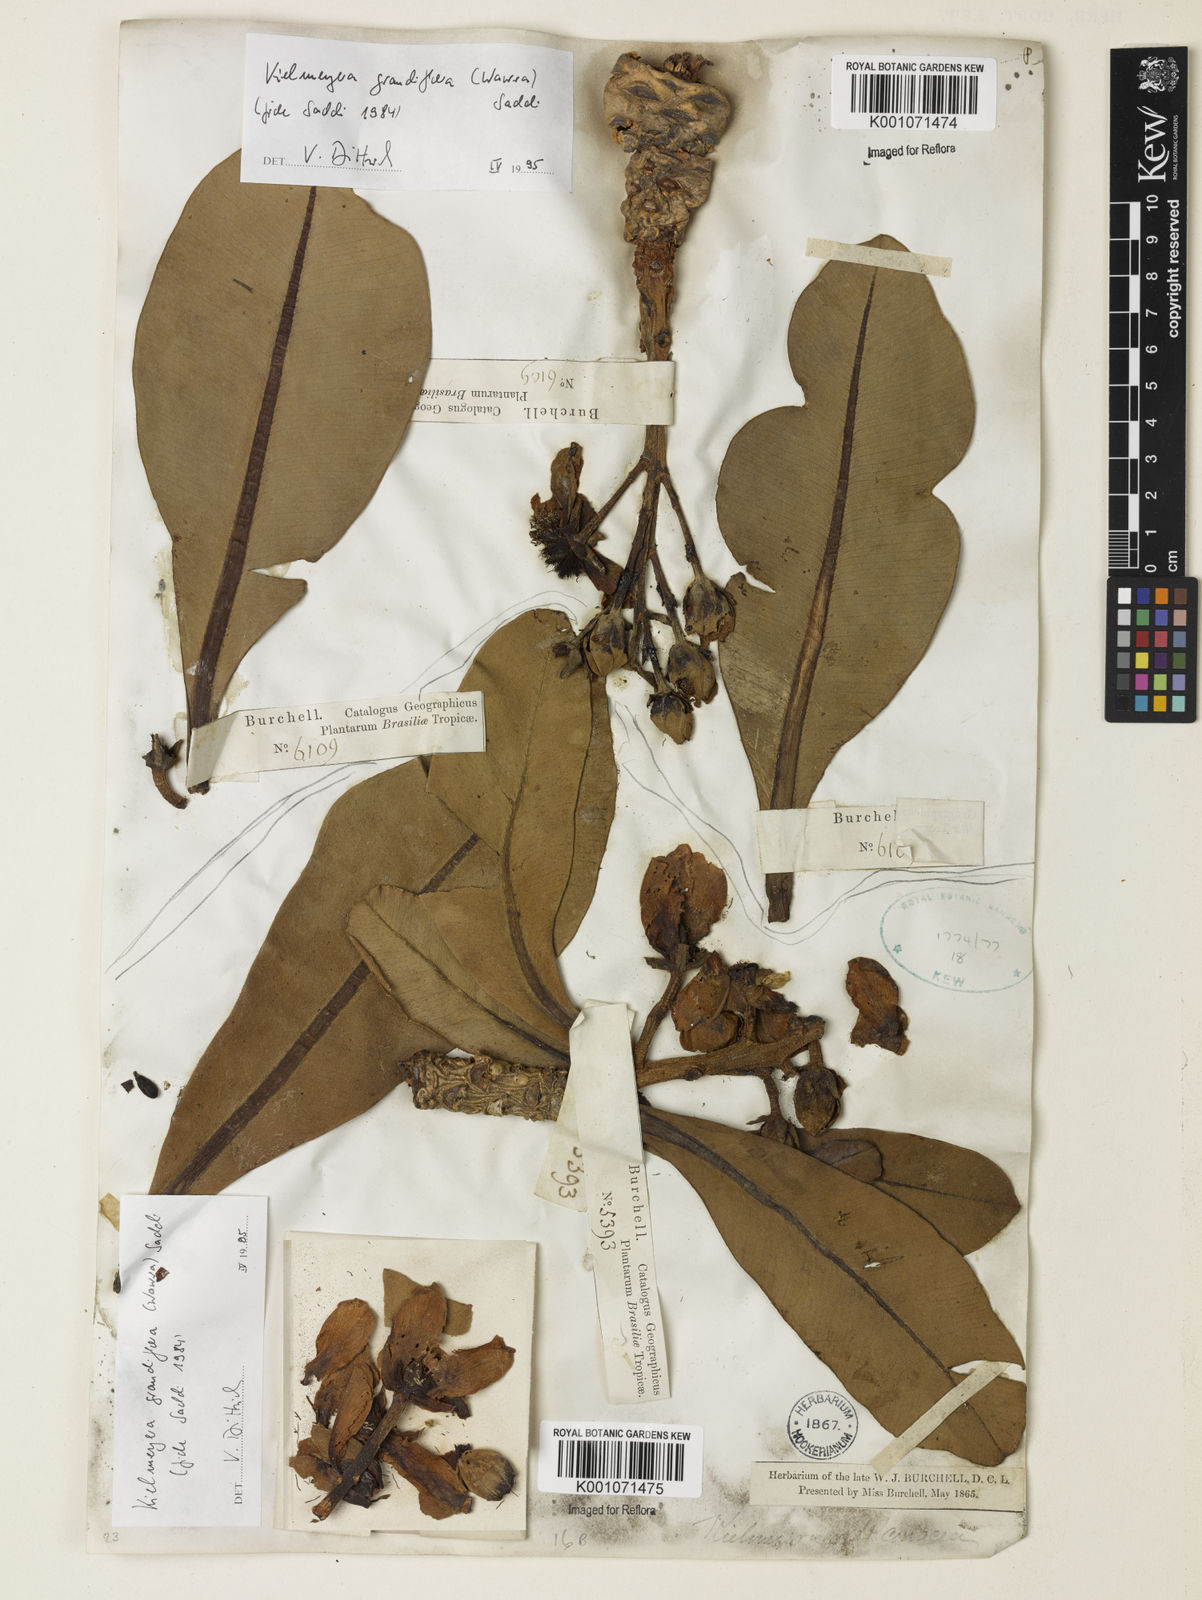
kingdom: Plantae
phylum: Tracheophyta
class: Magnoliopsida
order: Malpighiales
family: Calophyllaceae
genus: Kielmeyera
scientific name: Kielmeyera grandiflora
